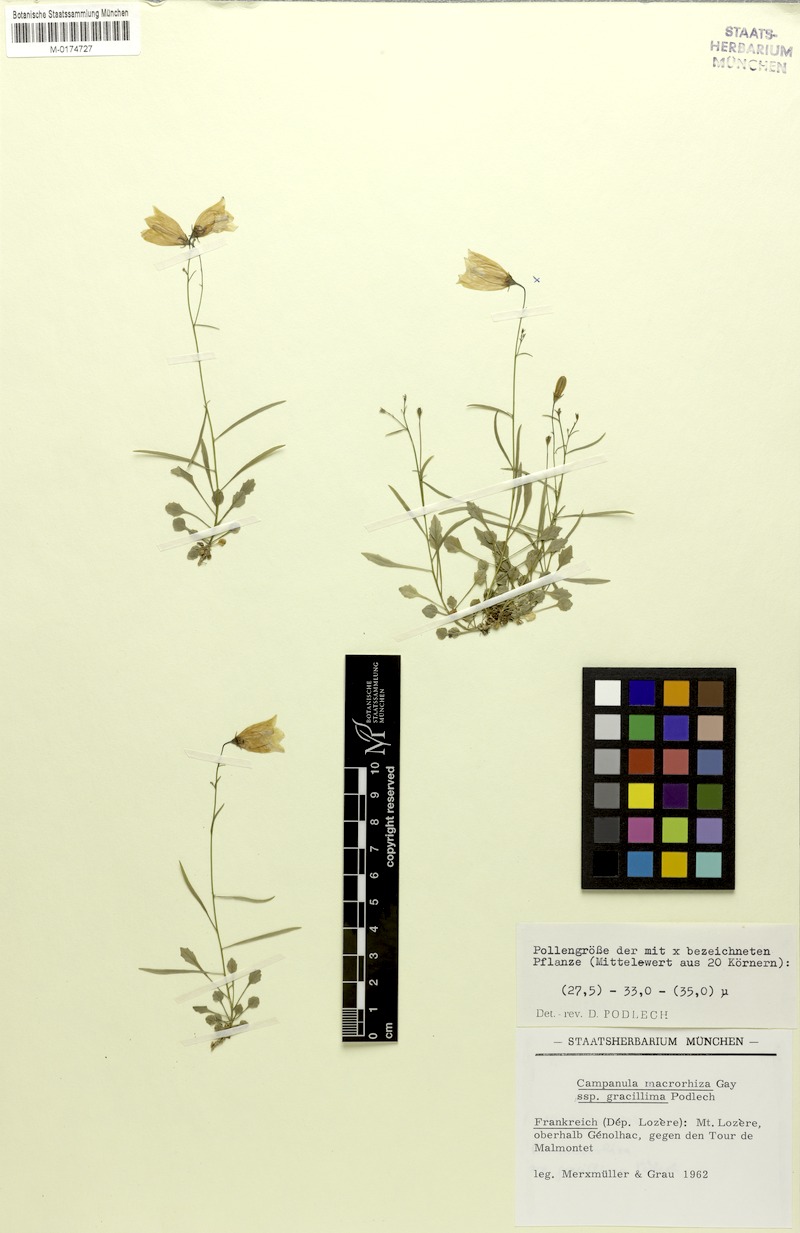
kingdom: Plantae
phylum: Tracheophyta
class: Magnoliopsida
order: Asterales
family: Campanulaceae
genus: Campanula
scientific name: Campanula gracillima
